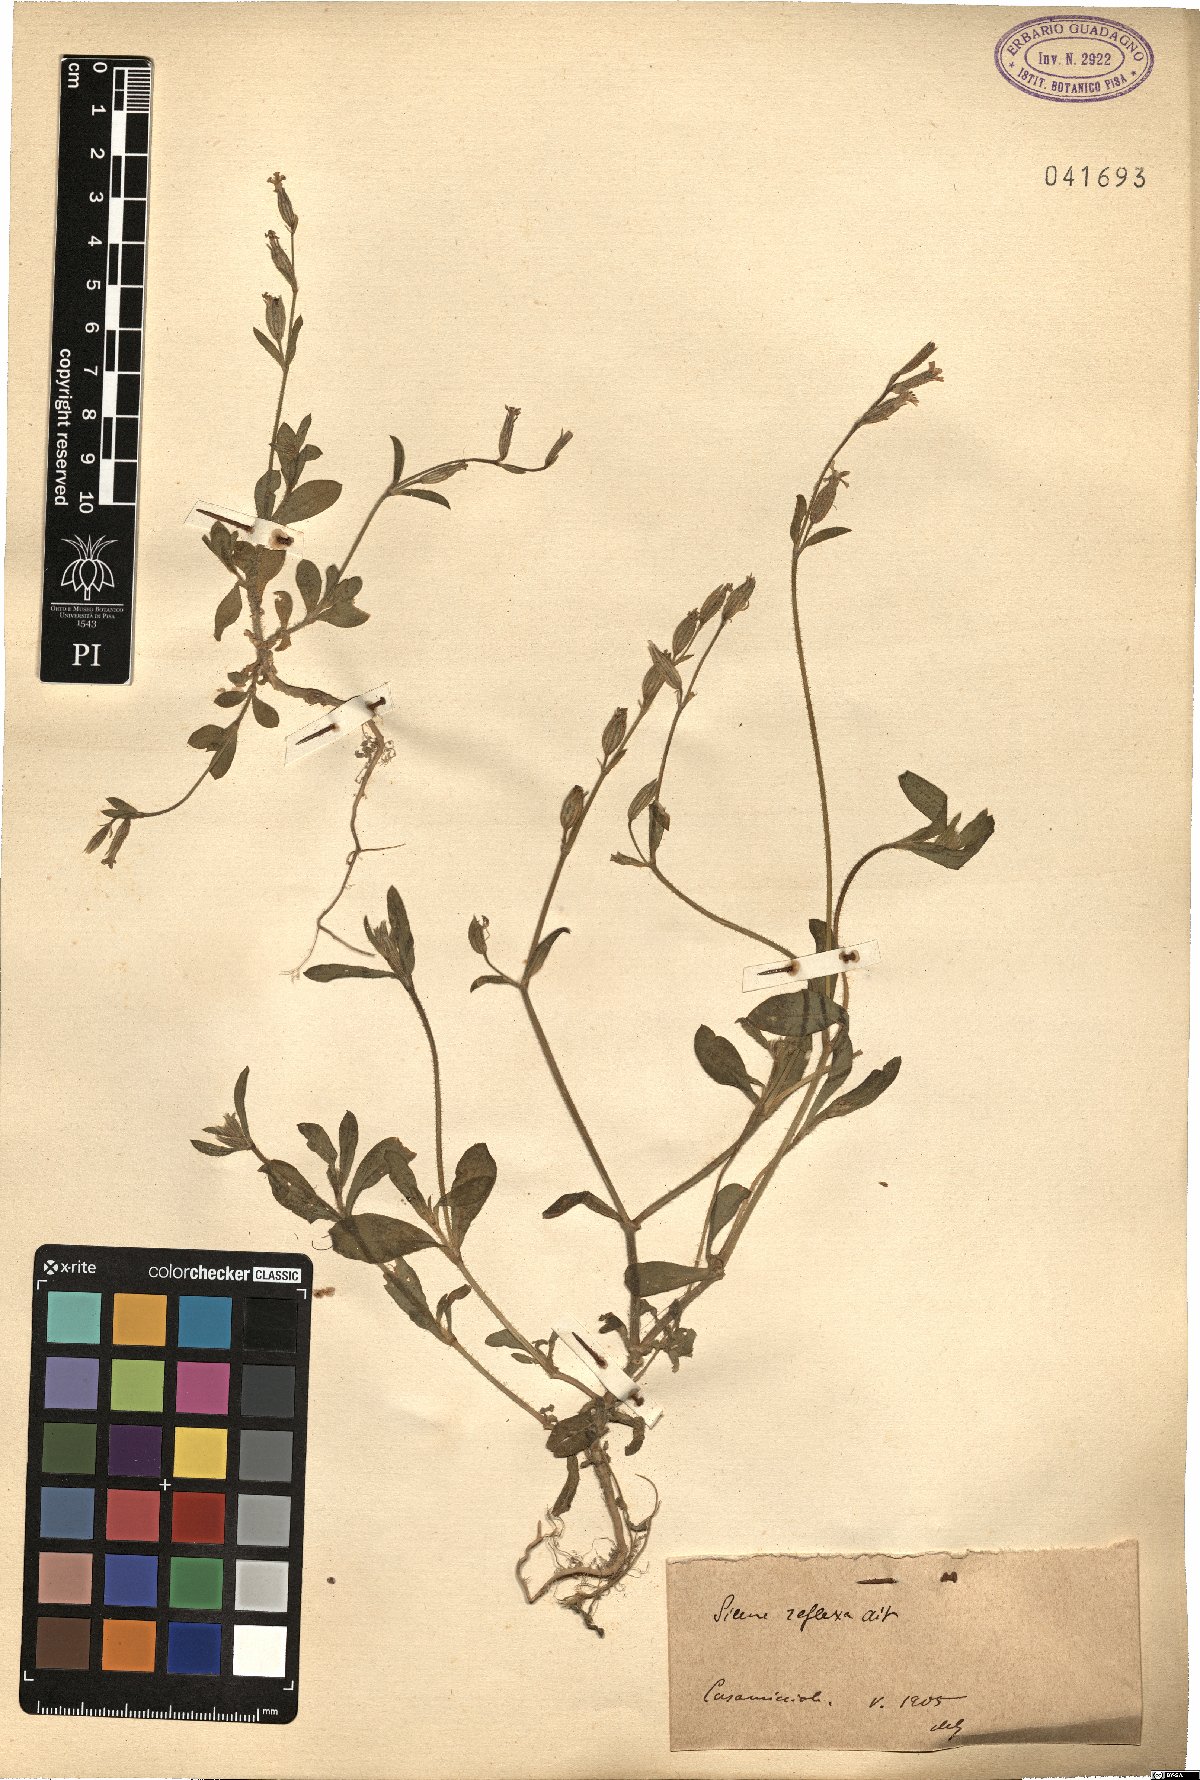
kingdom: Plantae
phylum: Tracheophyta
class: Magnoliopsida
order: Caryophyllales
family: Caryophyllaceae
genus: Silene
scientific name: Silene gallica
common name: Small-flowered catchfly
